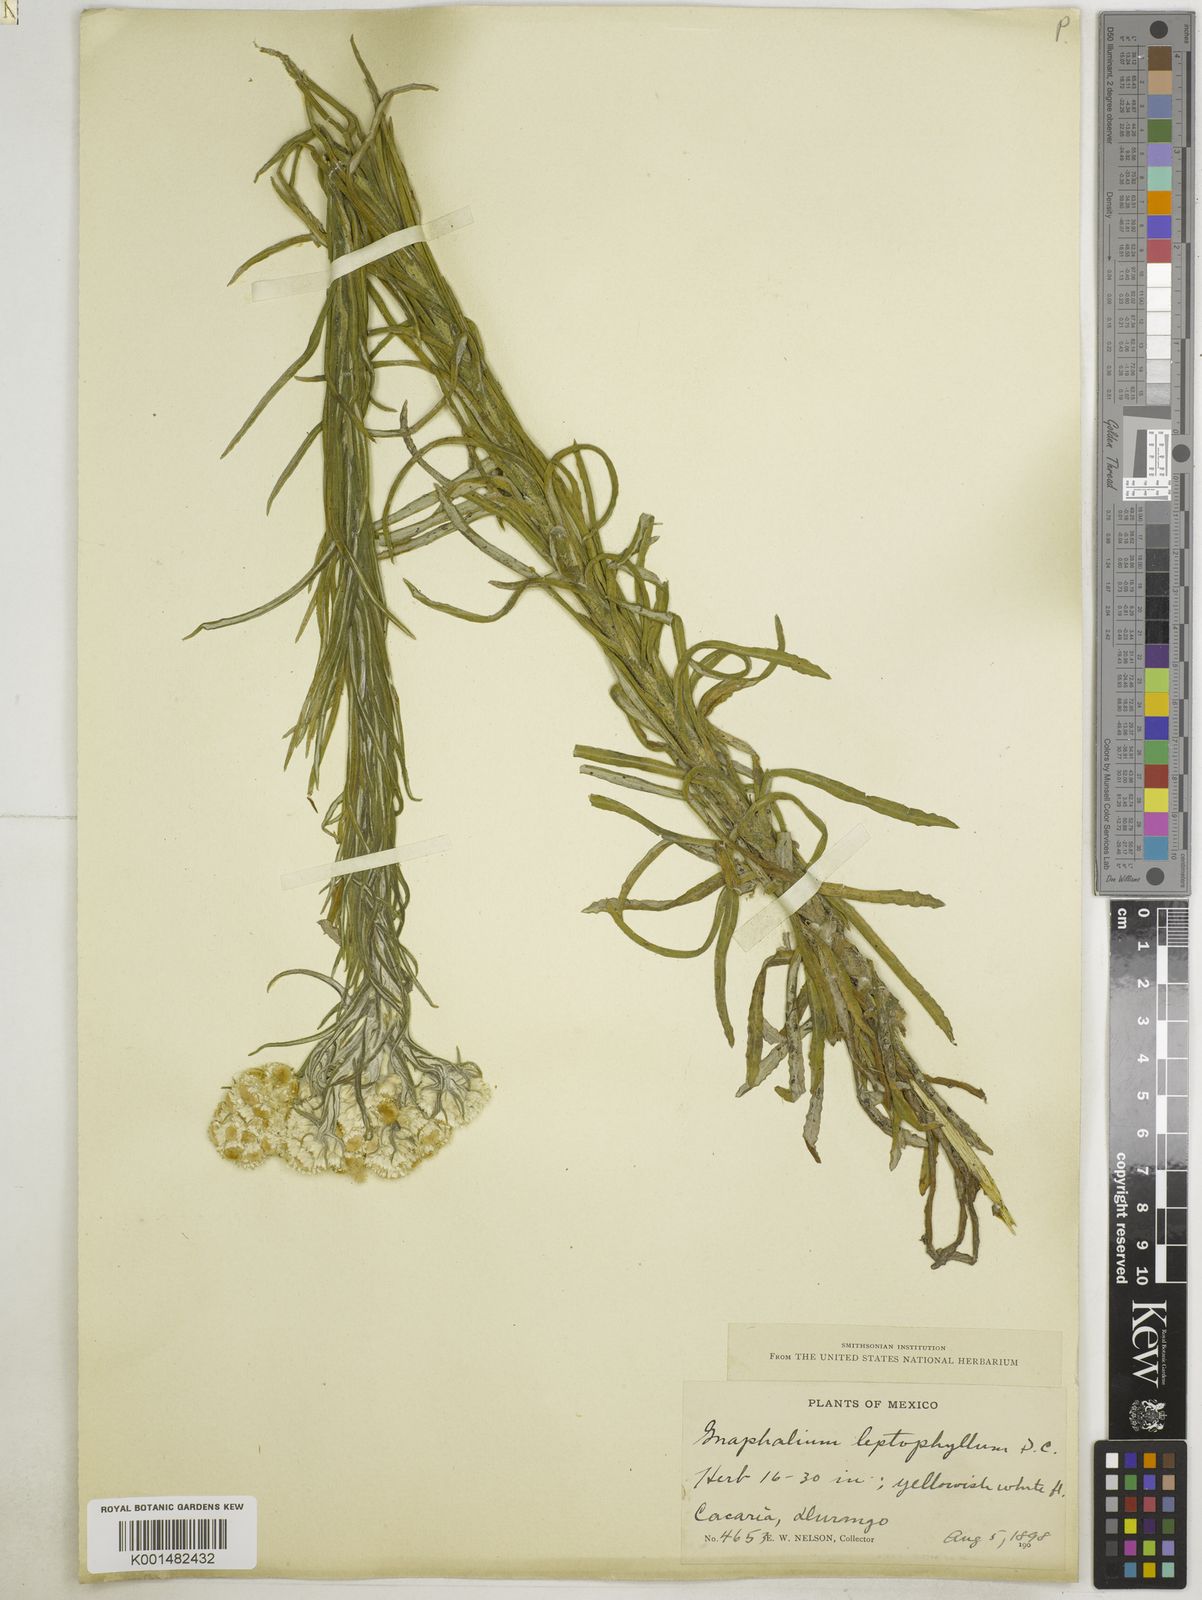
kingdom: Plantae
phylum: Tracheophyta
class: Magnoliopsida
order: Asterales
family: Asteraceae
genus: Pseudognaphalium
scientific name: Pseudognaphalium viscosum
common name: Sticky rabbit-tobacco
